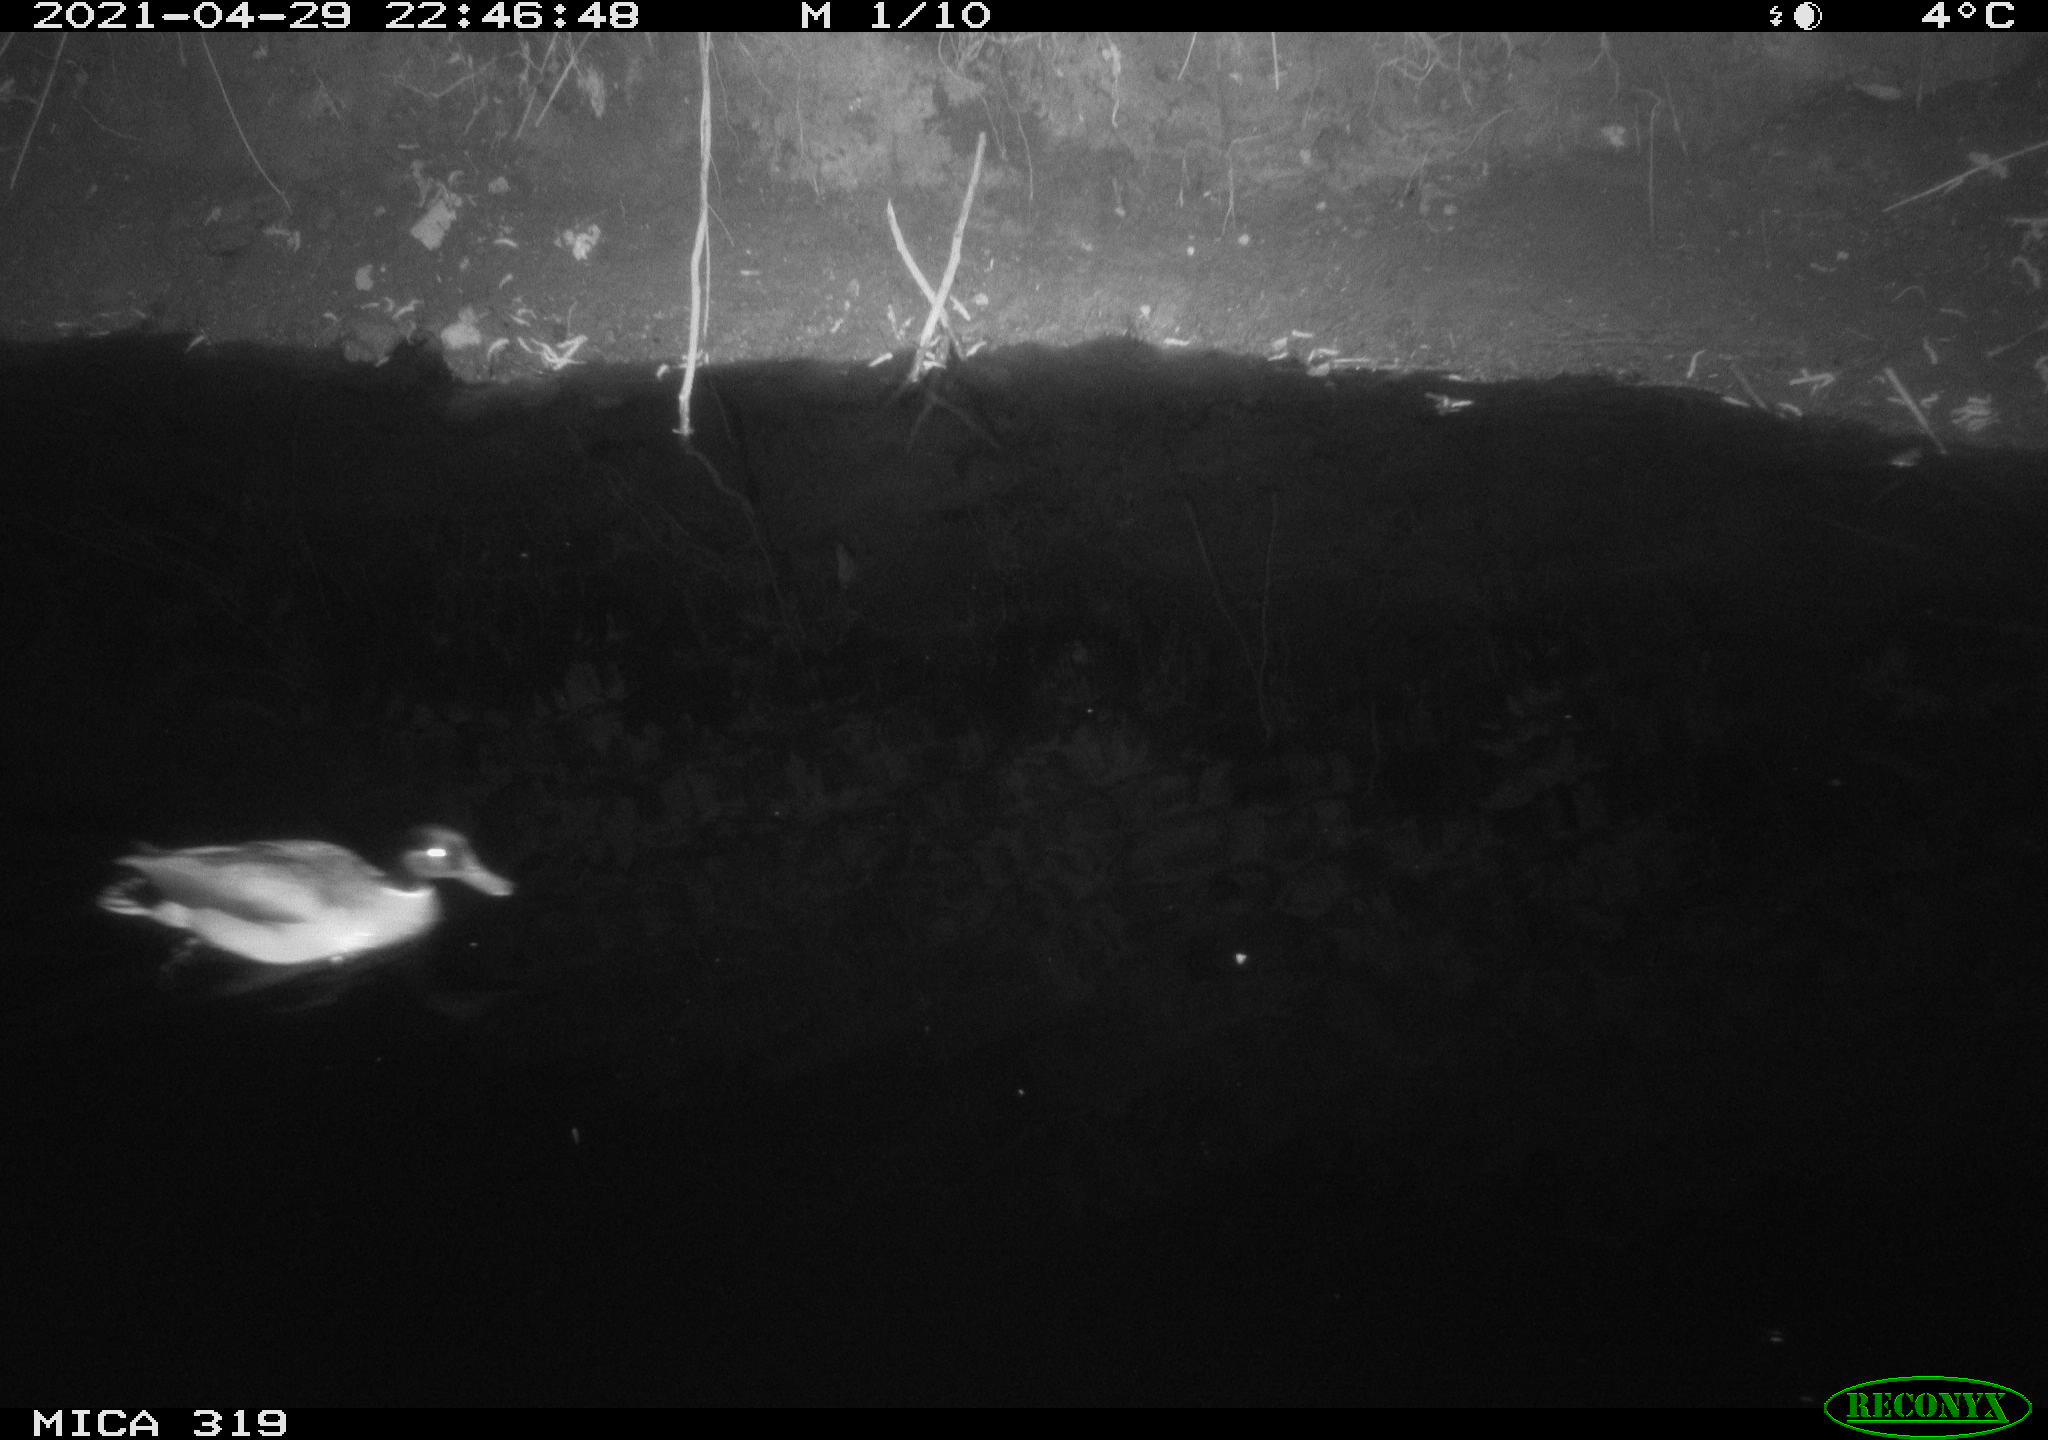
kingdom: Animalia
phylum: Chordata
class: Aves
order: Anseriformes
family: Anatidae
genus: Anas
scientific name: Anas platyrhynchos
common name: Mallard
